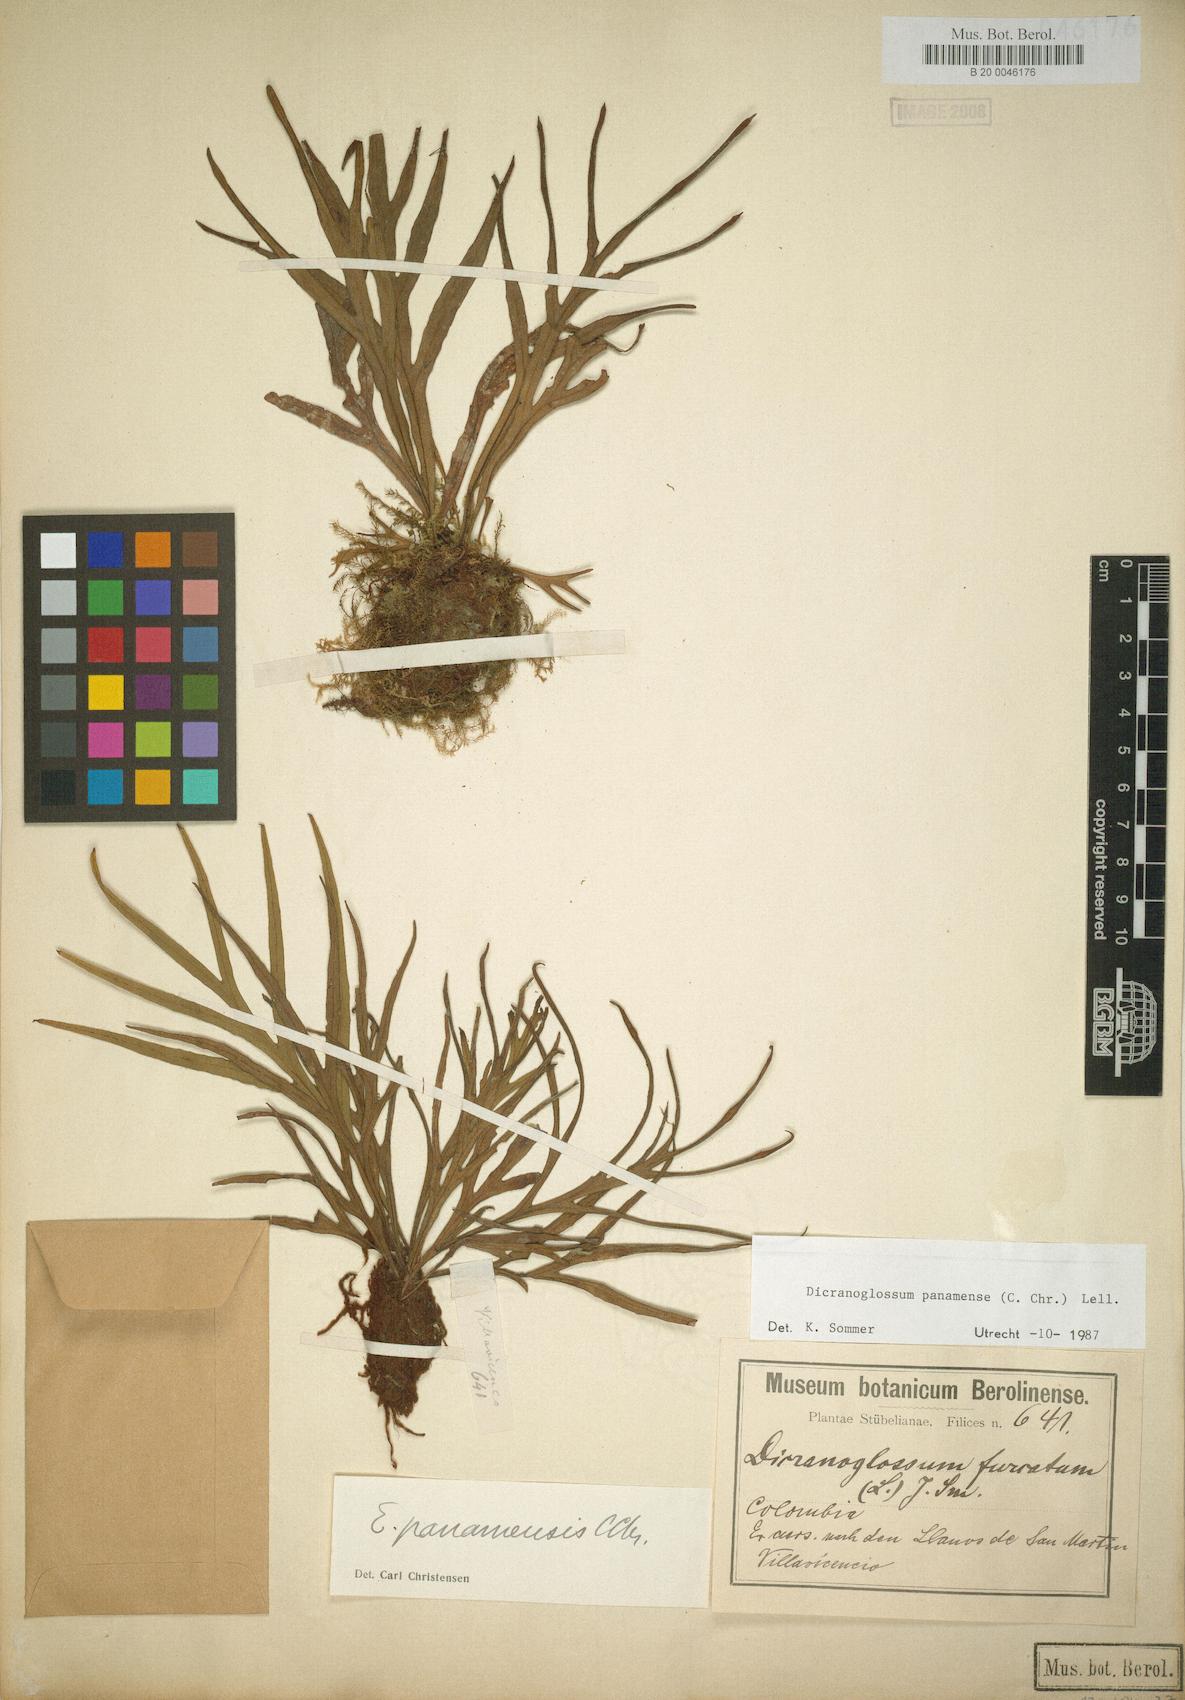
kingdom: Plantae
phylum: Tracheophyta
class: Polypodiopsida
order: Polypodiales
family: Polypodiaceae
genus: Pleopeltis
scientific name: Pleopeltis christensenii
